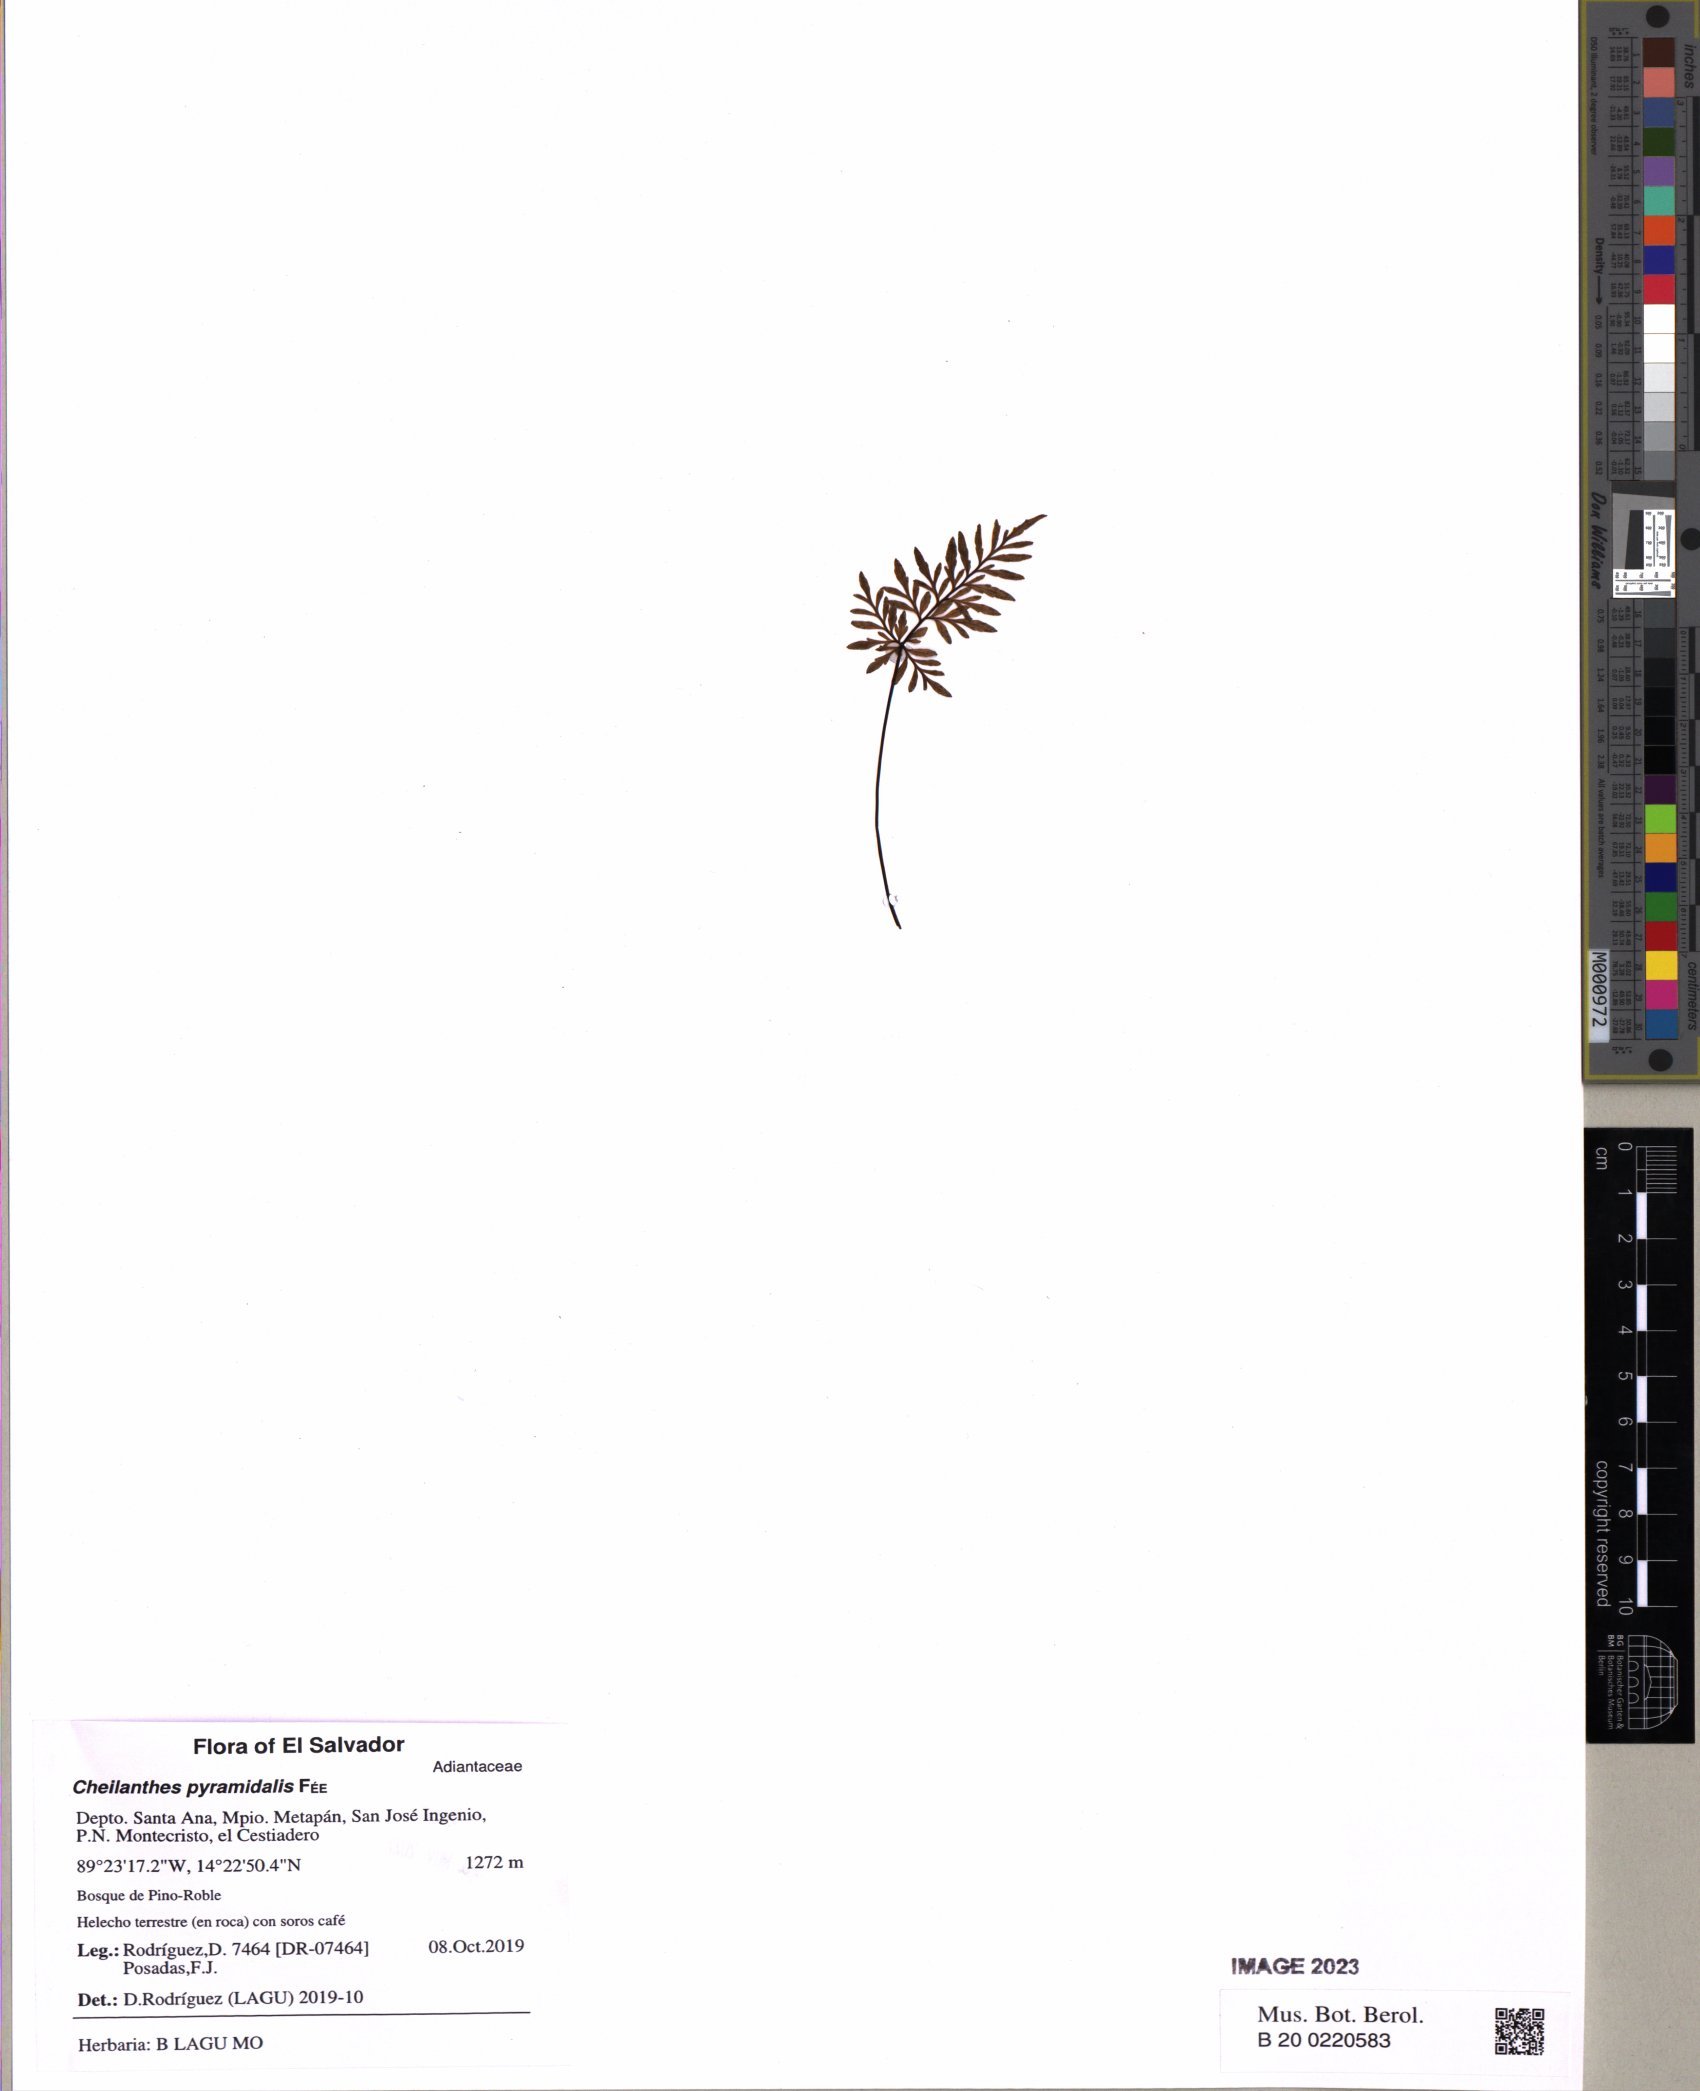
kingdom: Plantae
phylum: Tracheophyta
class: Polypodiopsida
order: Polypodiales
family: Pteridaceae
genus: Gaga
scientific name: Gaga hirsuta
